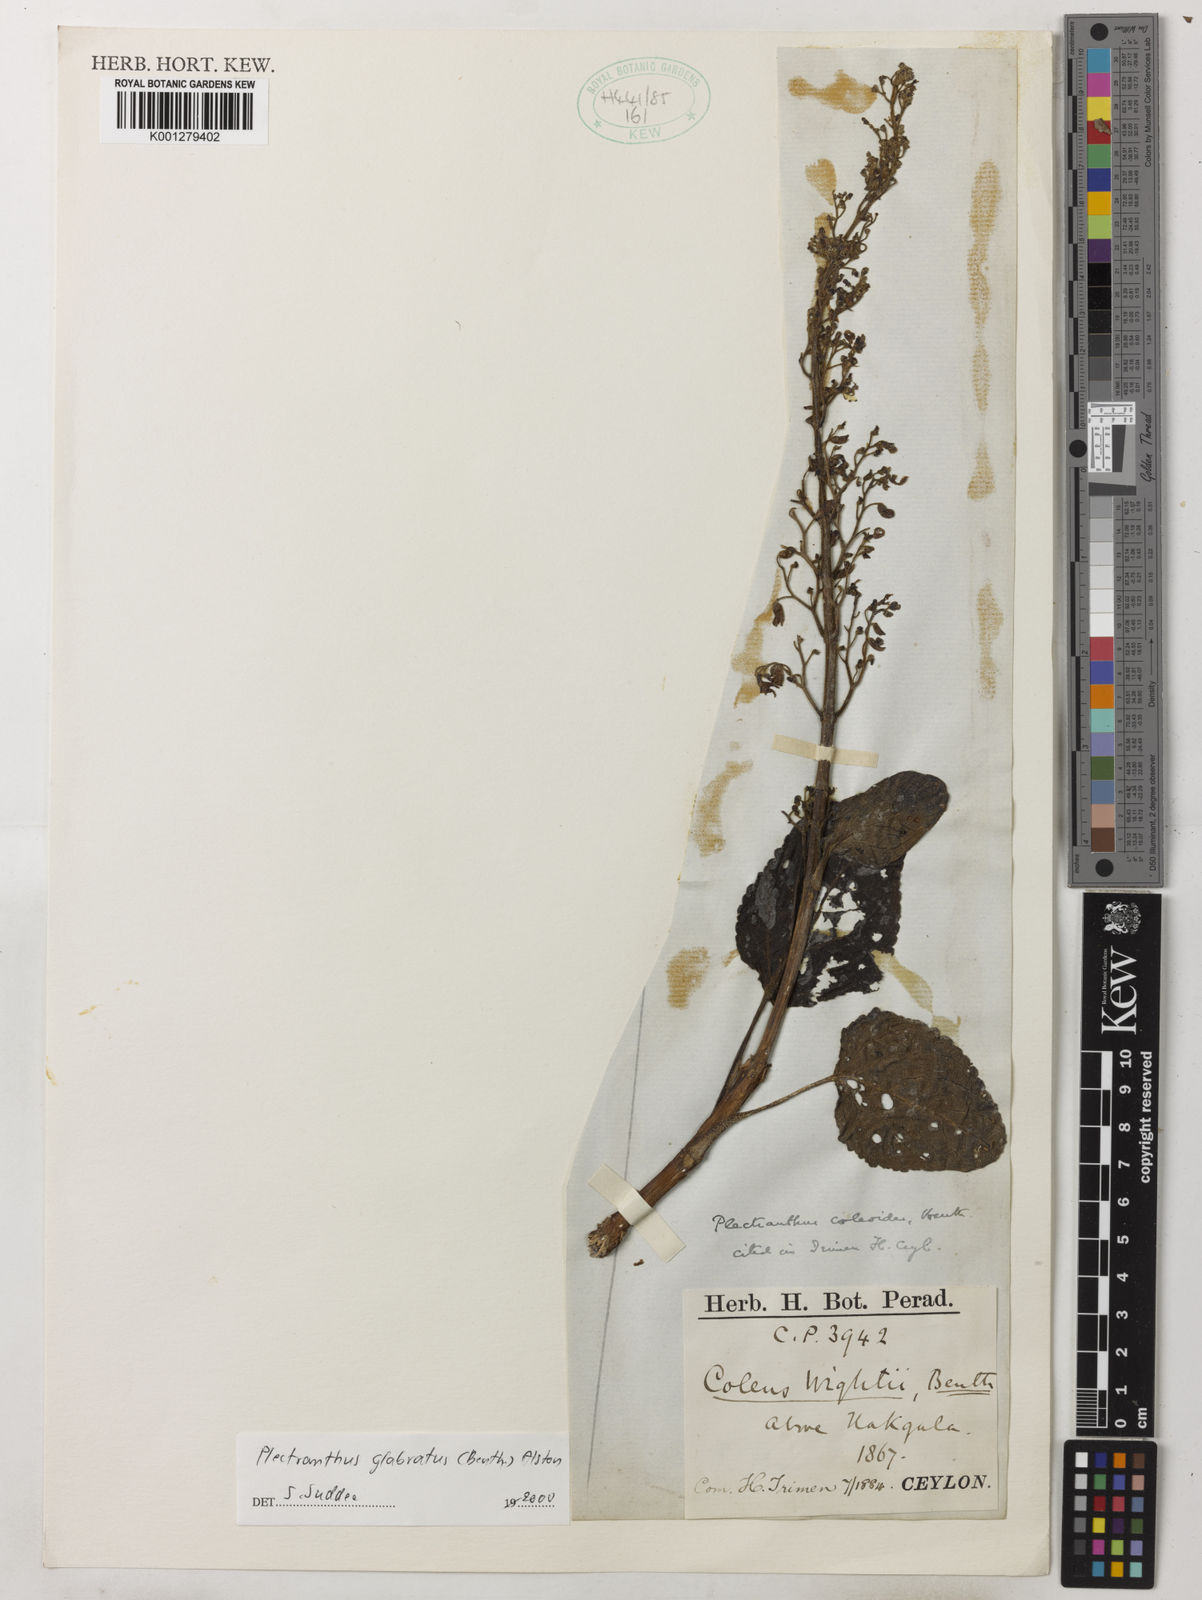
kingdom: Plantae
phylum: Tracheophyta
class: Magnoliopsida
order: Lamiales
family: Lamiaceae
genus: Coleus
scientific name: Coleus paniculatus
